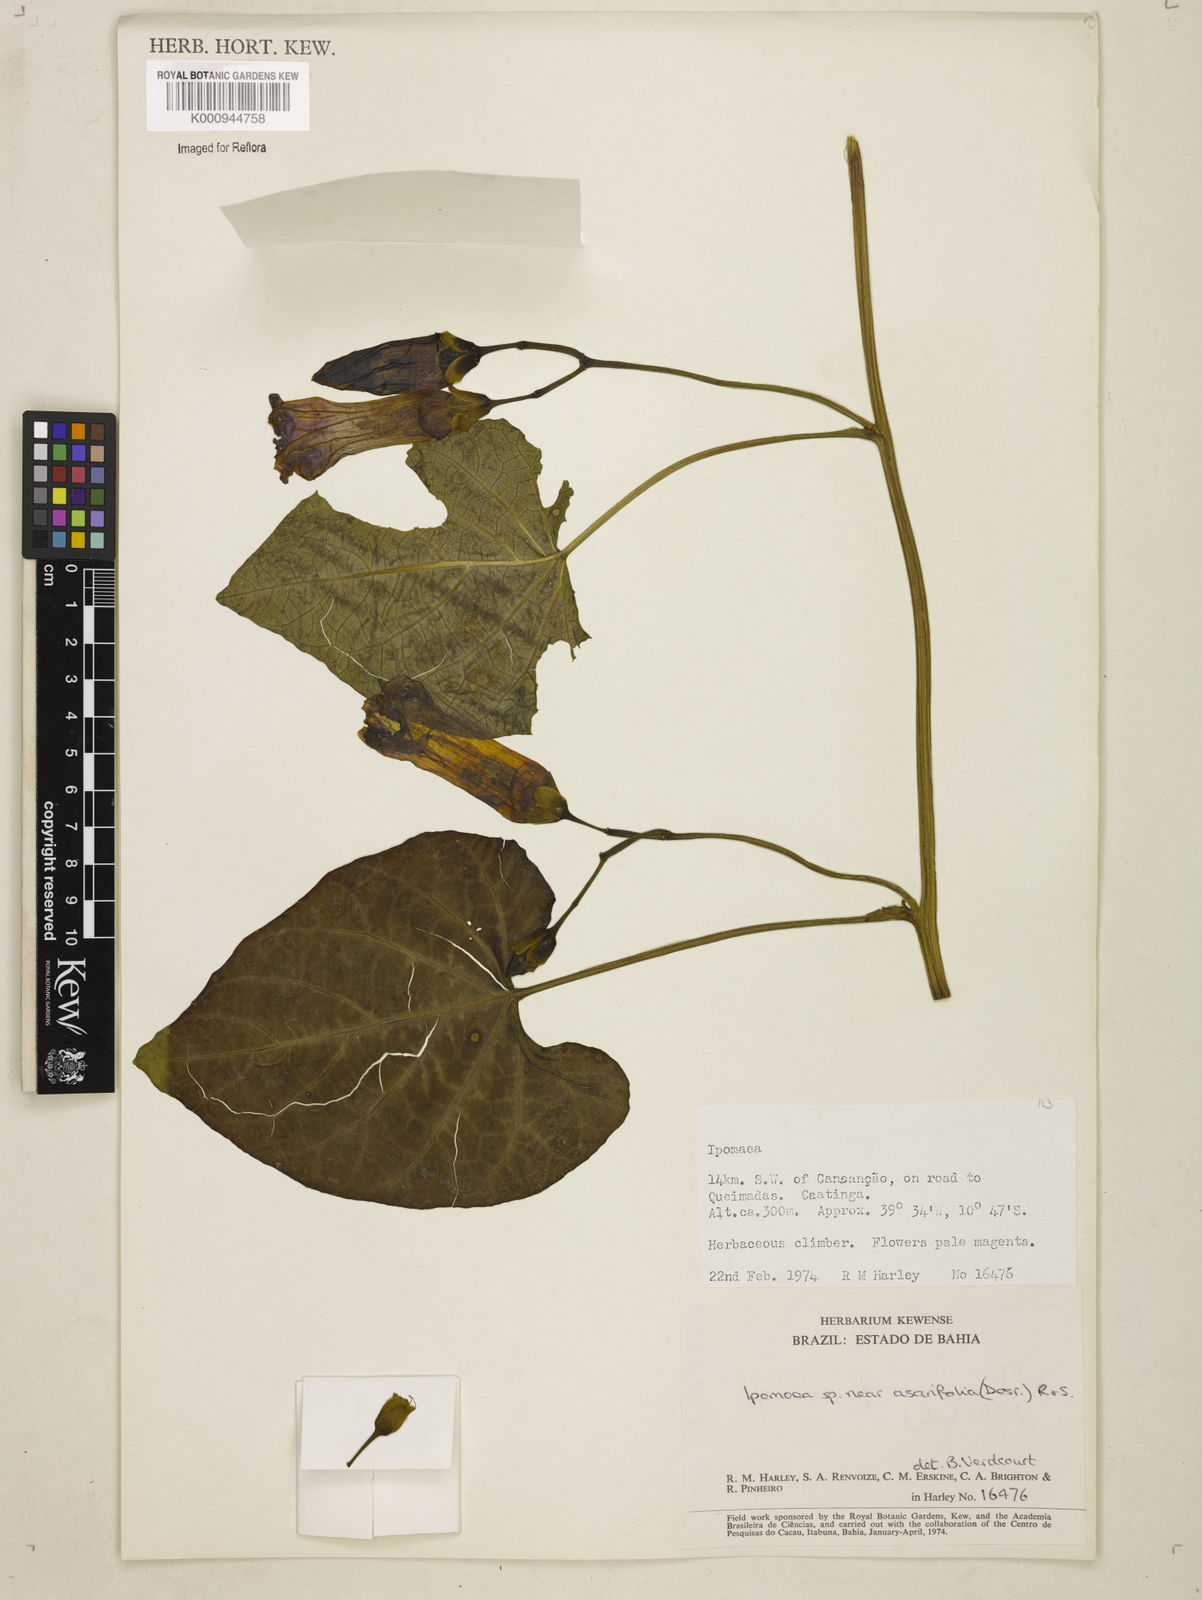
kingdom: Plantae
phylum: Tracheophyta
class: Magnoliopsida
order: Solanales
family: Convolvulaceae
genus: Ipomoea
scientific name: Ipomoea asarifolia
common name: Ginger-leaf morning-glory
